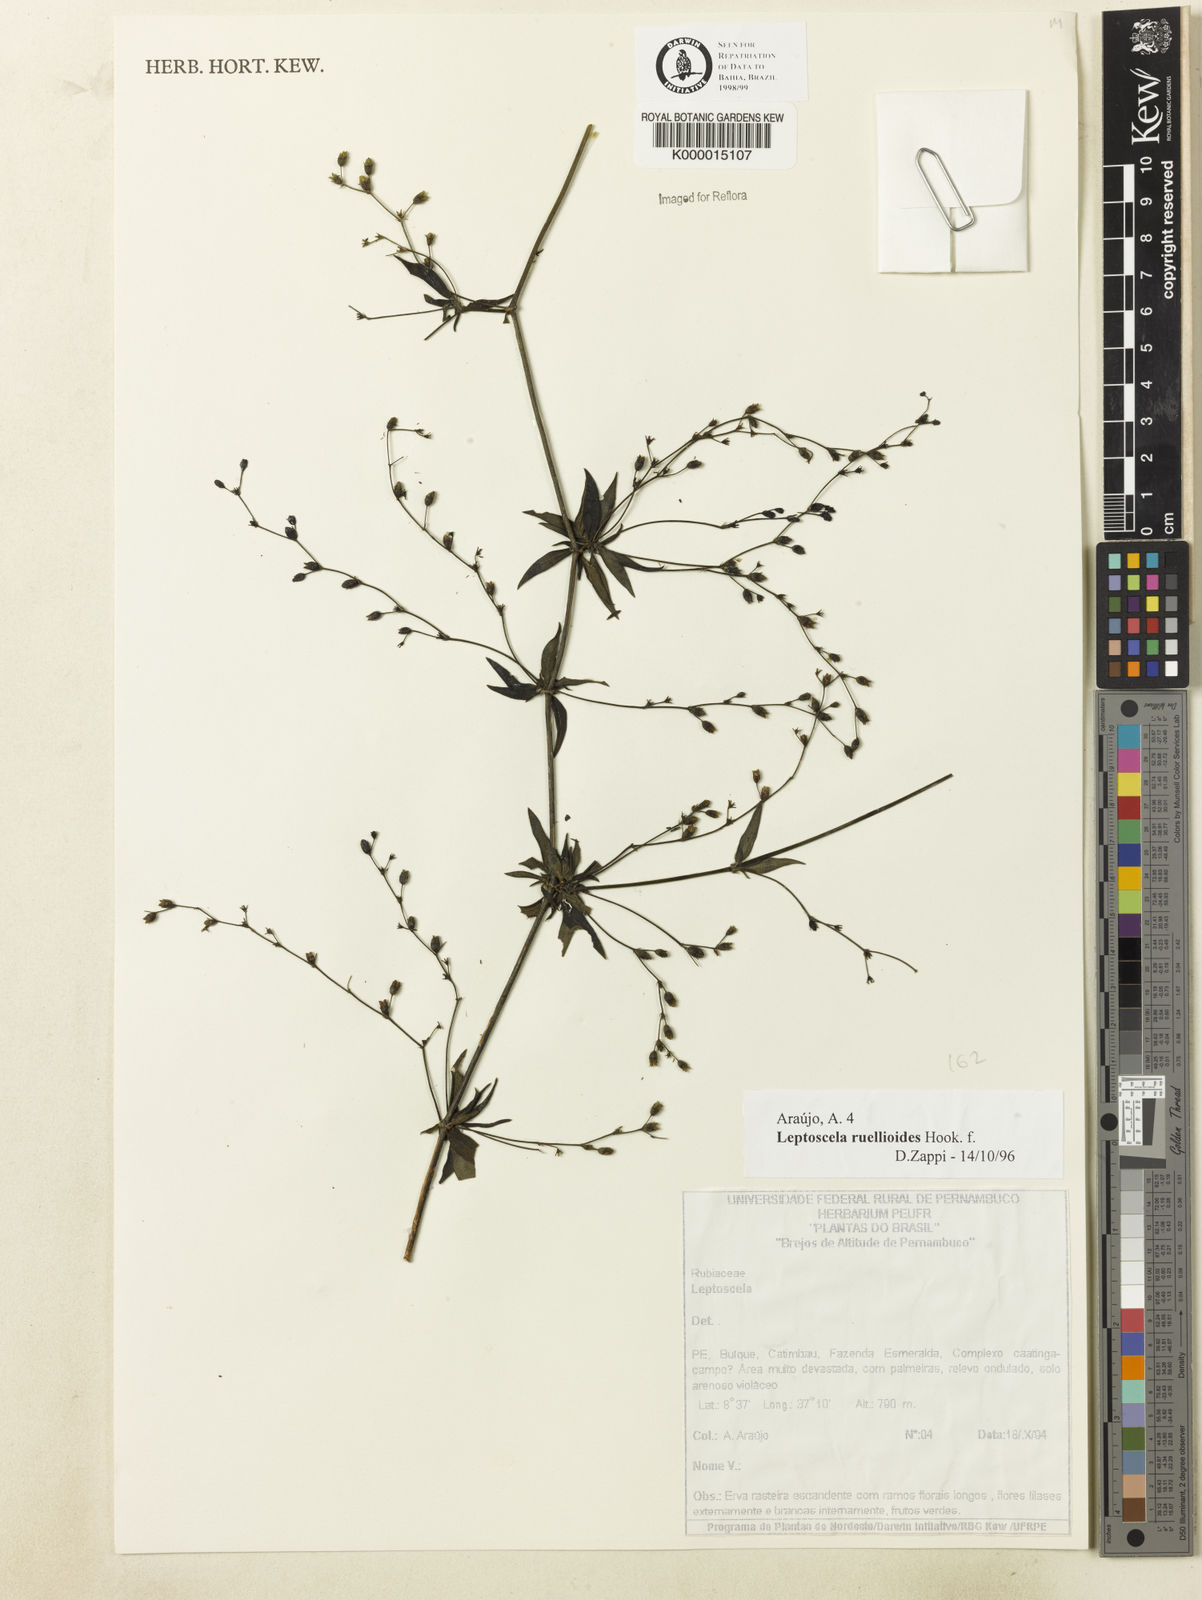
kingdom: Plantae
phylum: Tracheophyta
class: Magnoliopsida
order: Gentianales
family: Rubiaceae
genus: Leptoscela
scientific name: Leptoscela
